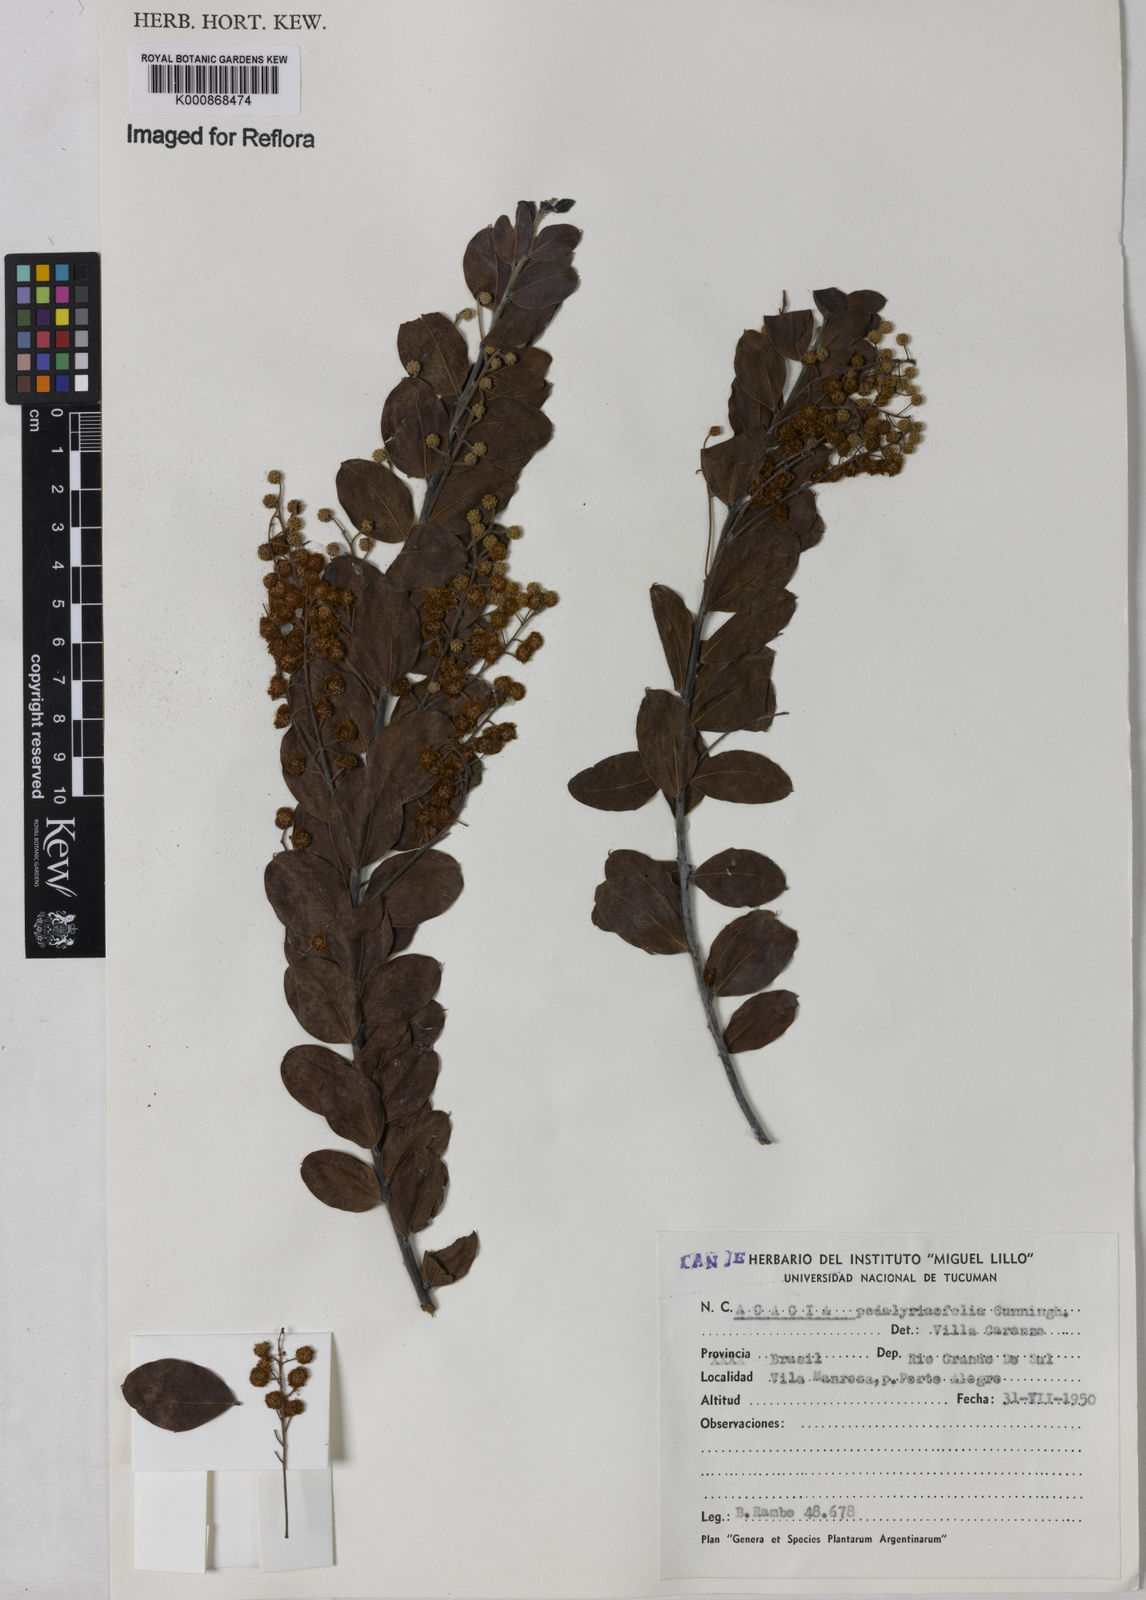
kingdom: Plantae
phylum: Tracheophyta
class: Magnoliopsida
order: Fabales
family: Fabaceae
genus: Acacia
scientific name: Acacia podalyriifolia
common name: Pearl wattle
